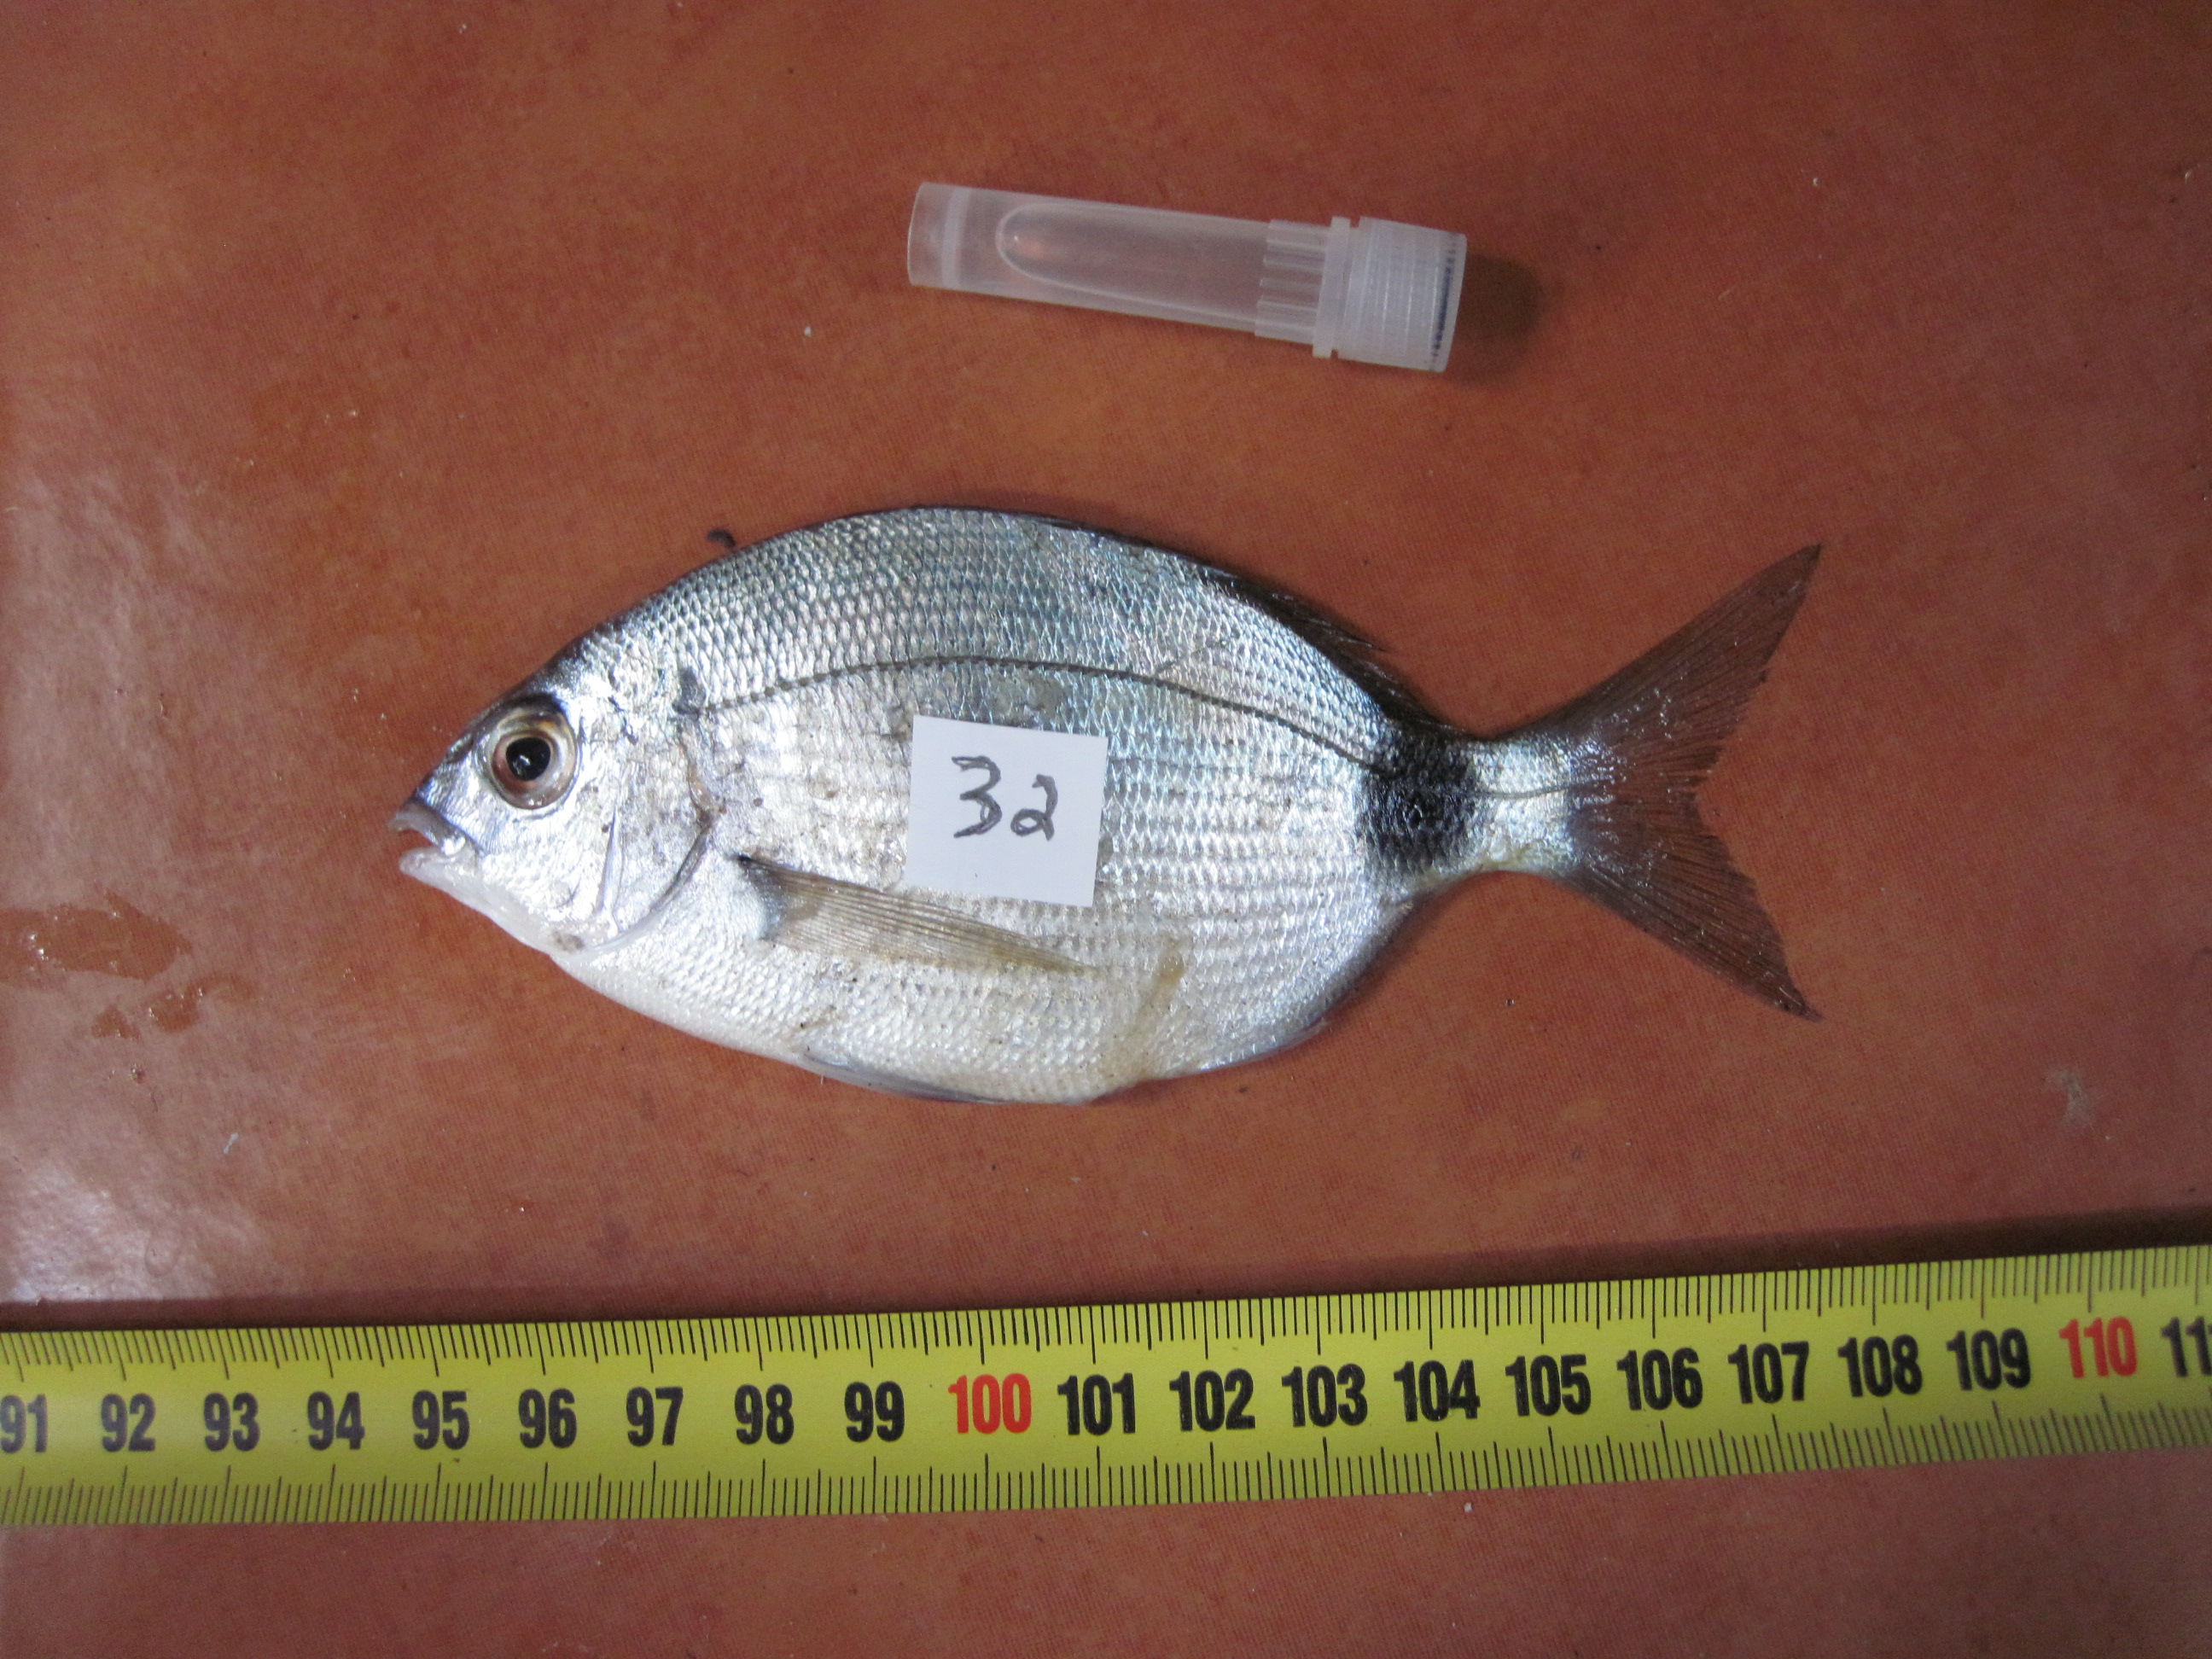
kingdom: Animalia
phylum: Chordata
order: Perciformes
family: Sparidae
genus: Diplodus
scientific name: Diplodus capensis
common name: Blacktail
